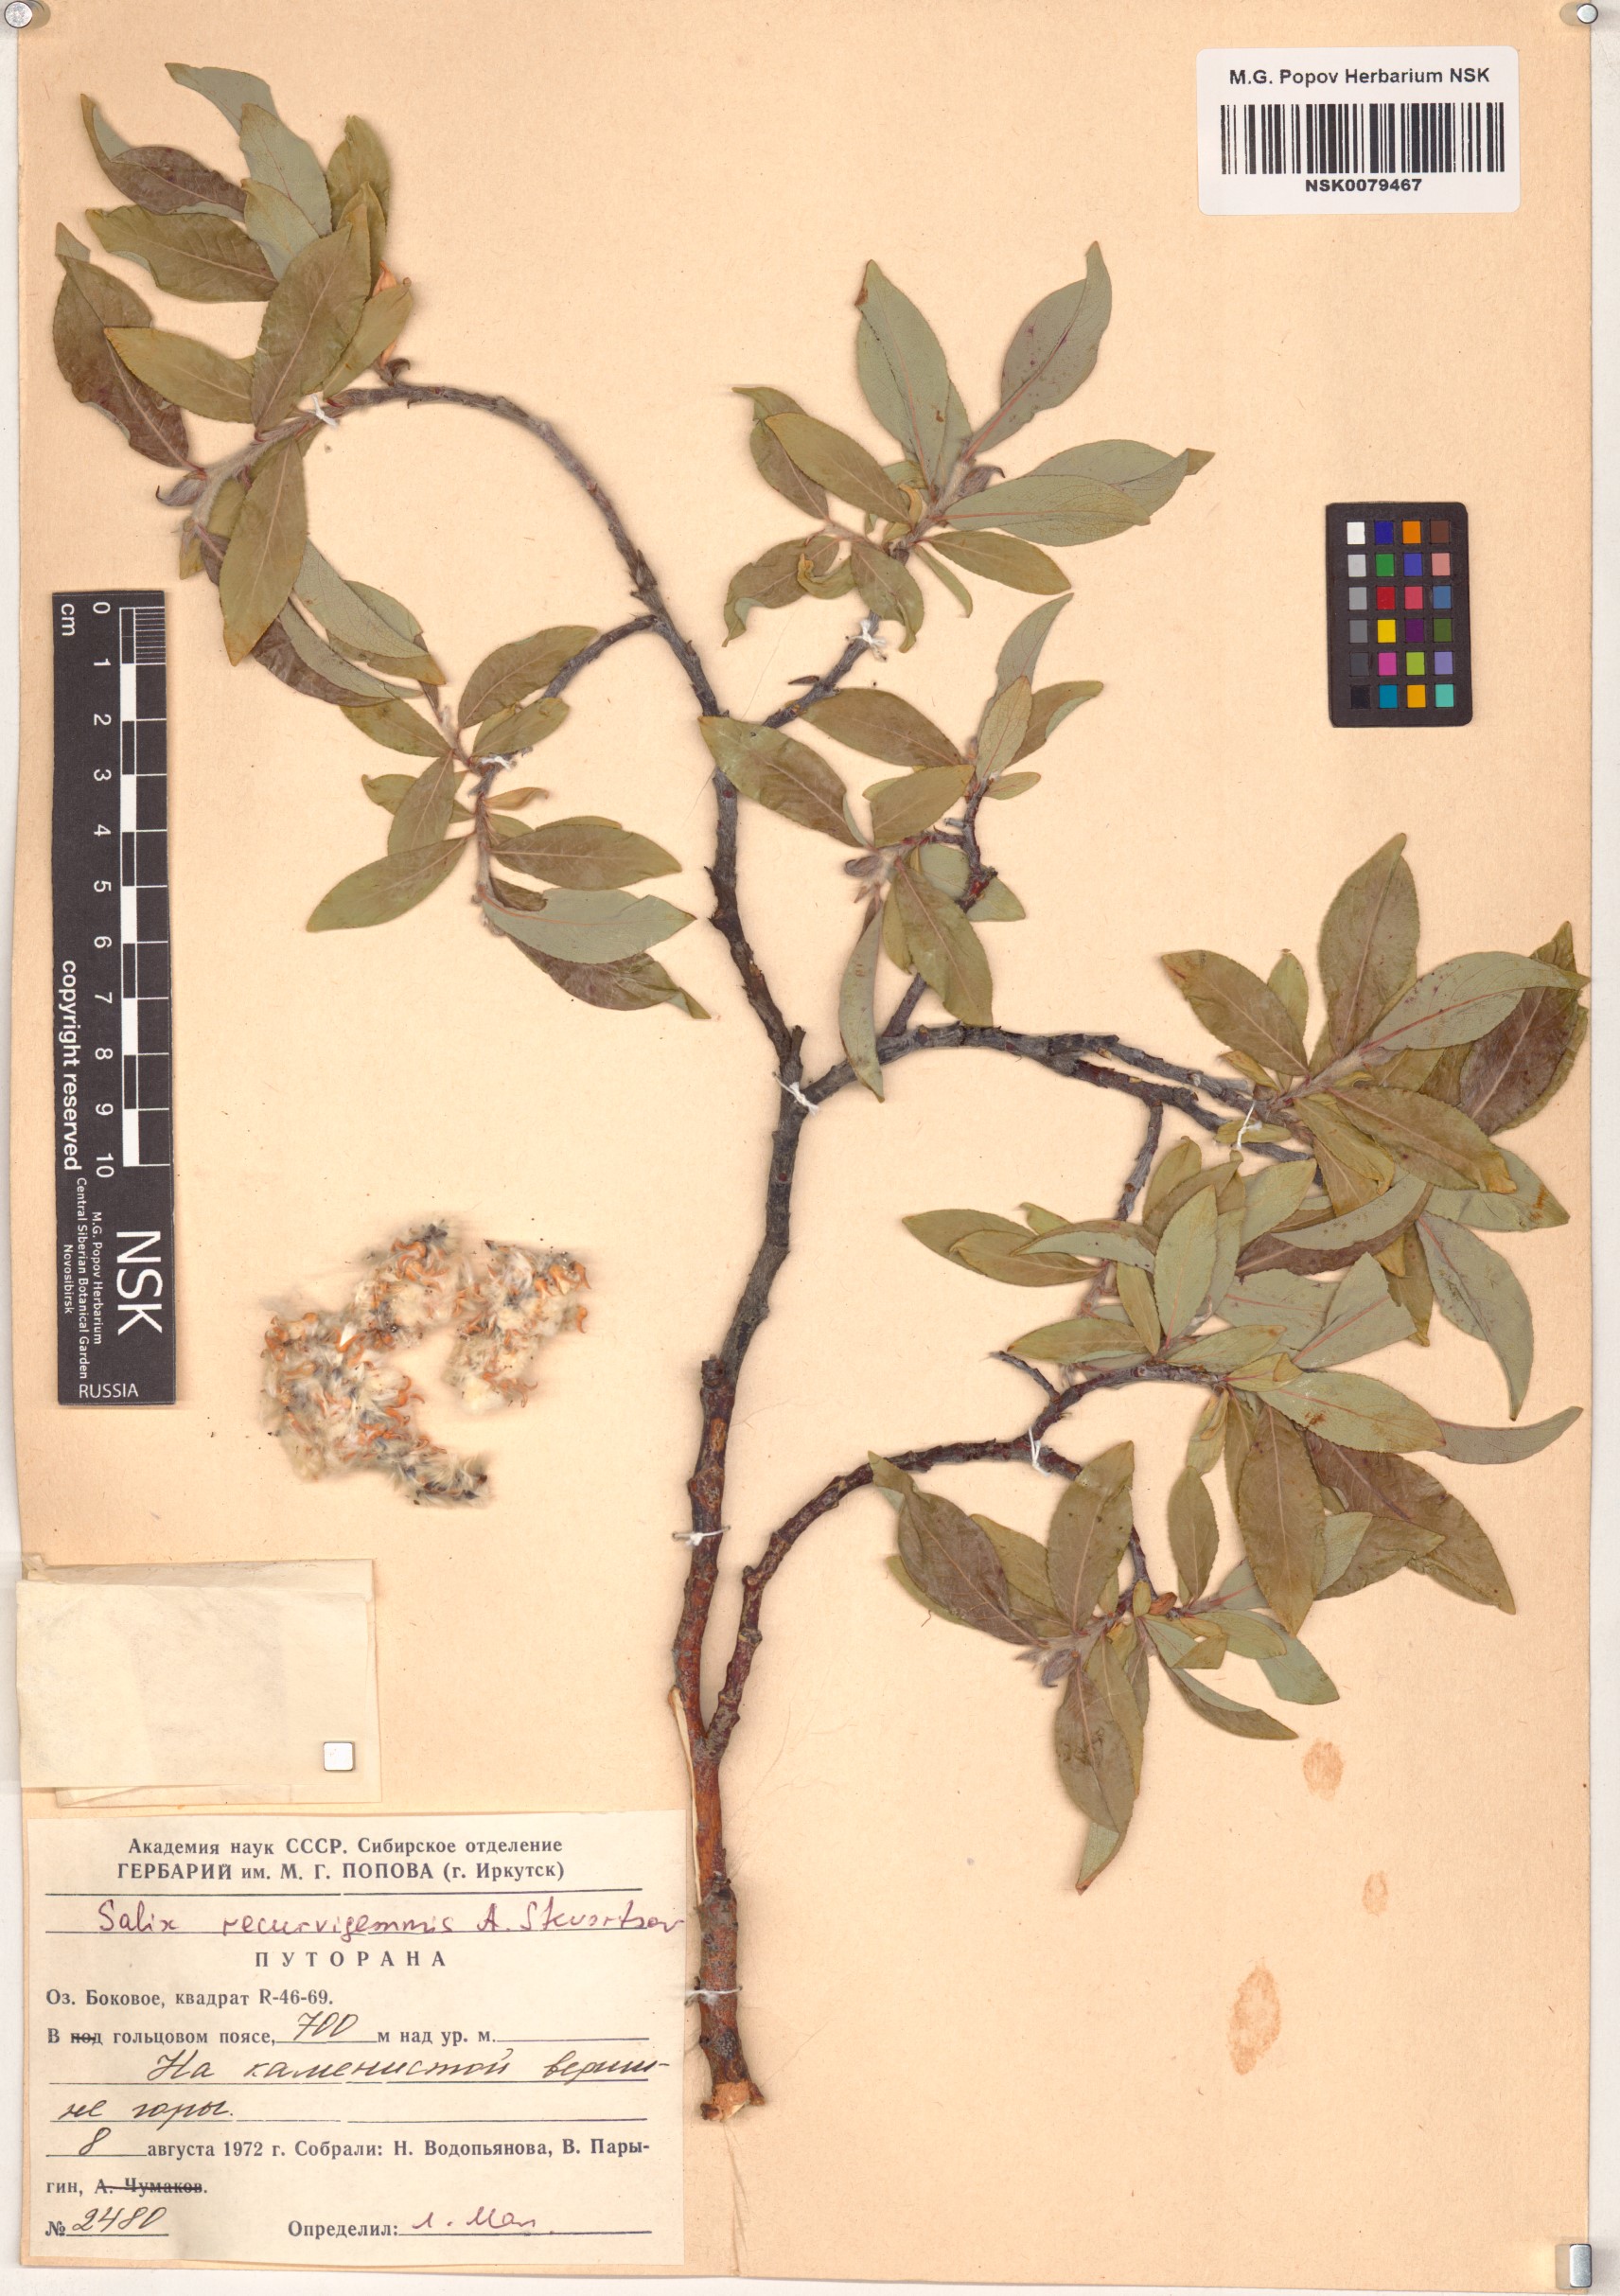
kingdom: Plantae
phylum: Tracheophyta
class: Magnoliopsida
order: Malpighiales
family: Salicaceae
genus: Salix
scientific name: Salix recurvigemmata
